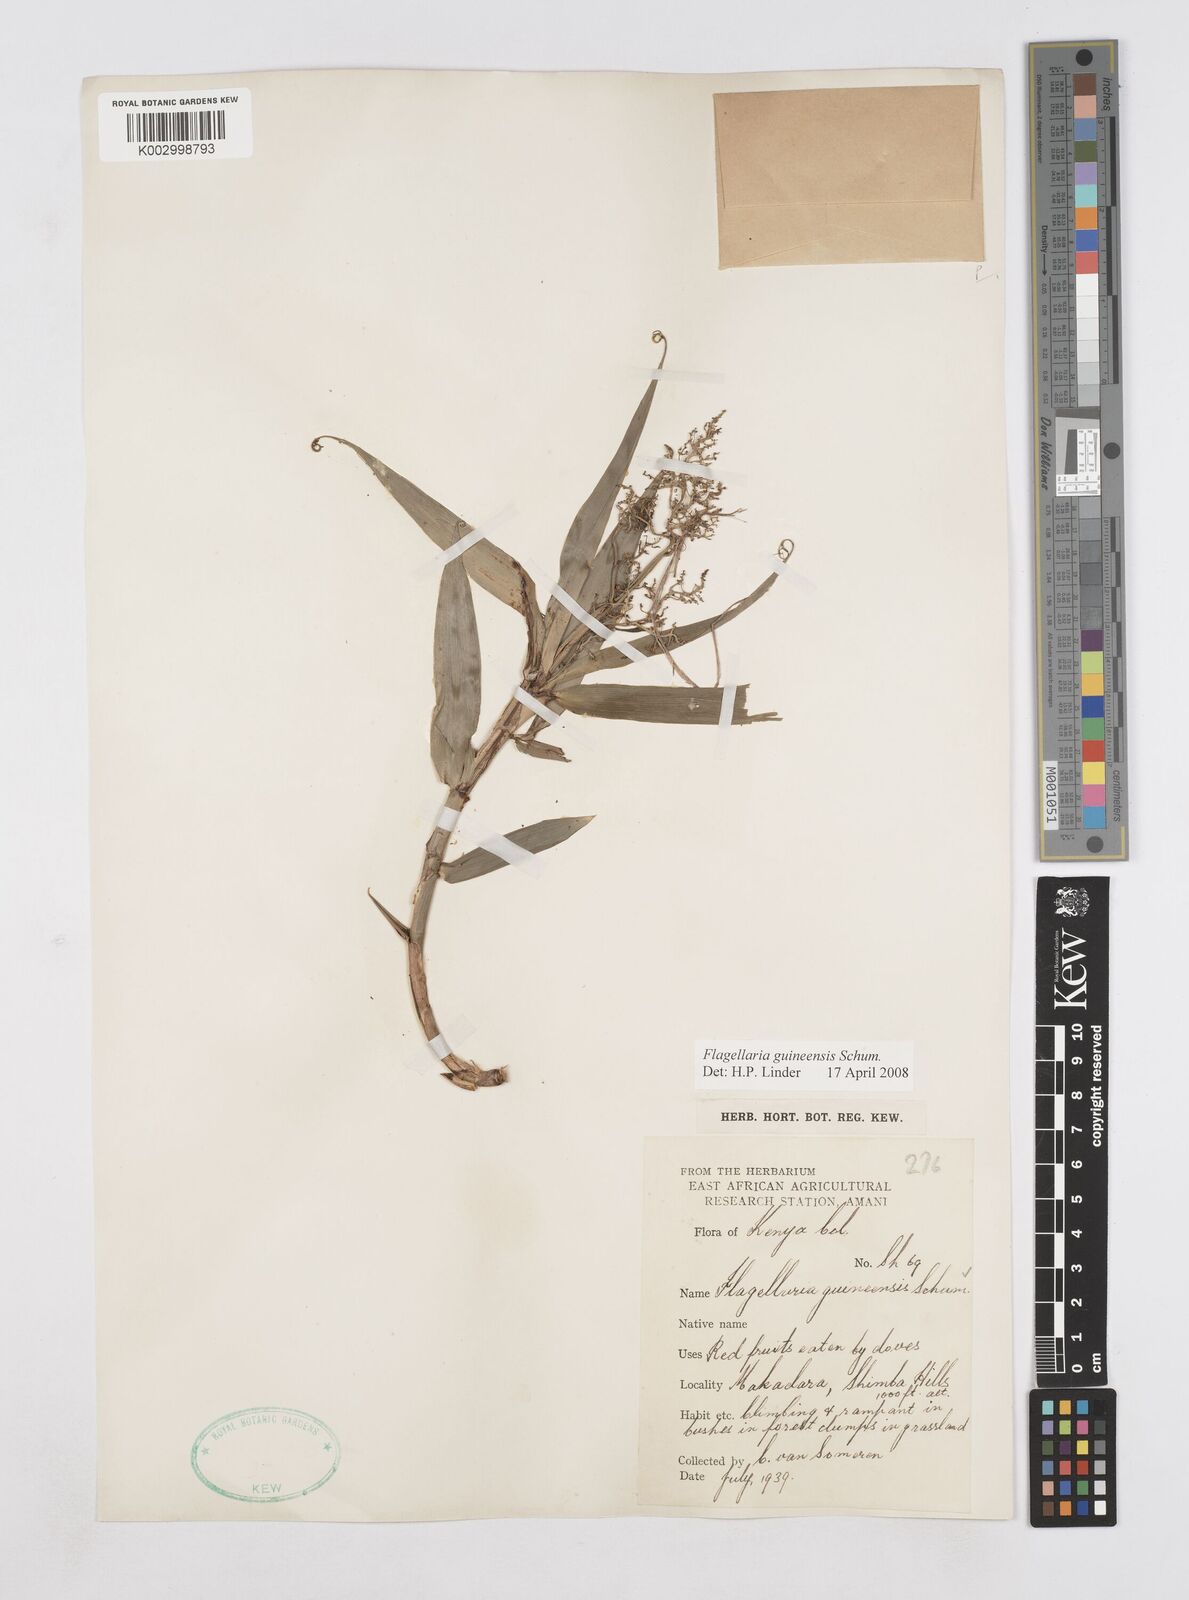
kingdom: Plantae
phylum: Tracheophyta
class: Liliopsida
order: Poales
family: Flagellariaceae
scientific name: Flagellariaceae
